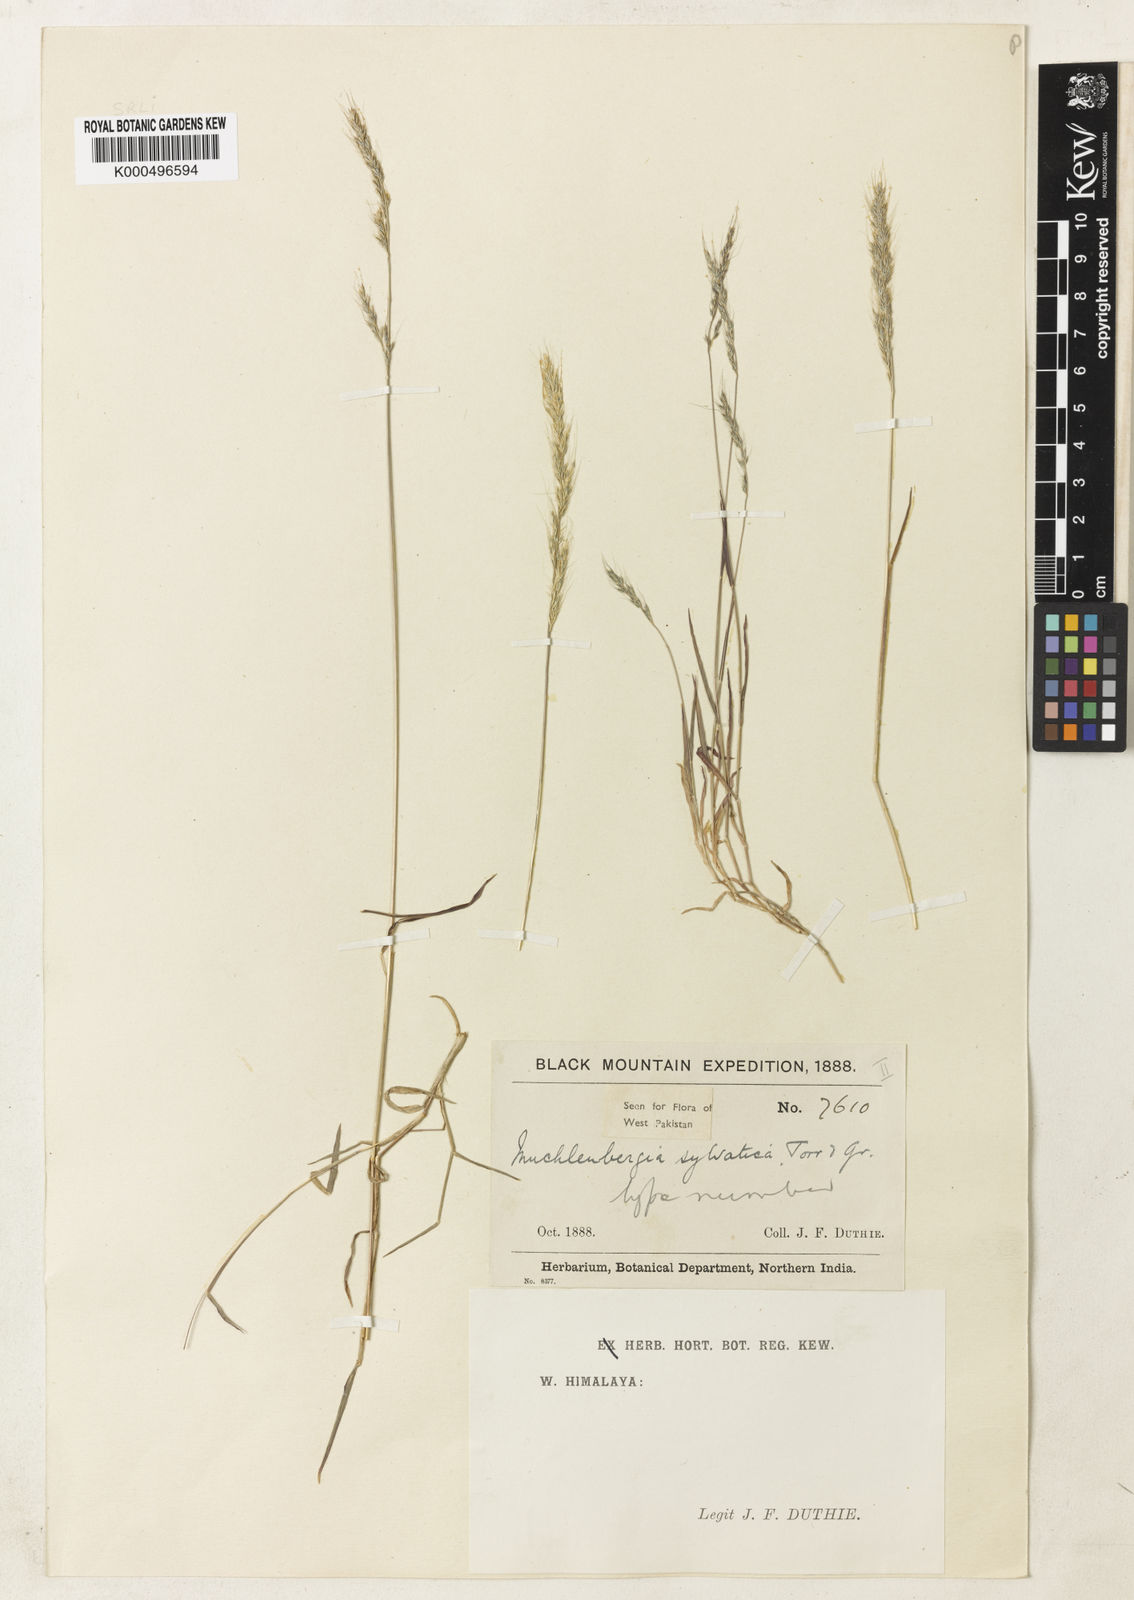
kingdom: Plantae
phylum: Tracheophyta
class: Liliopsida
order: Poales
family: Poaceae
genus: Muhlenbergia
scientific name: Muhlenbergia duthieana
